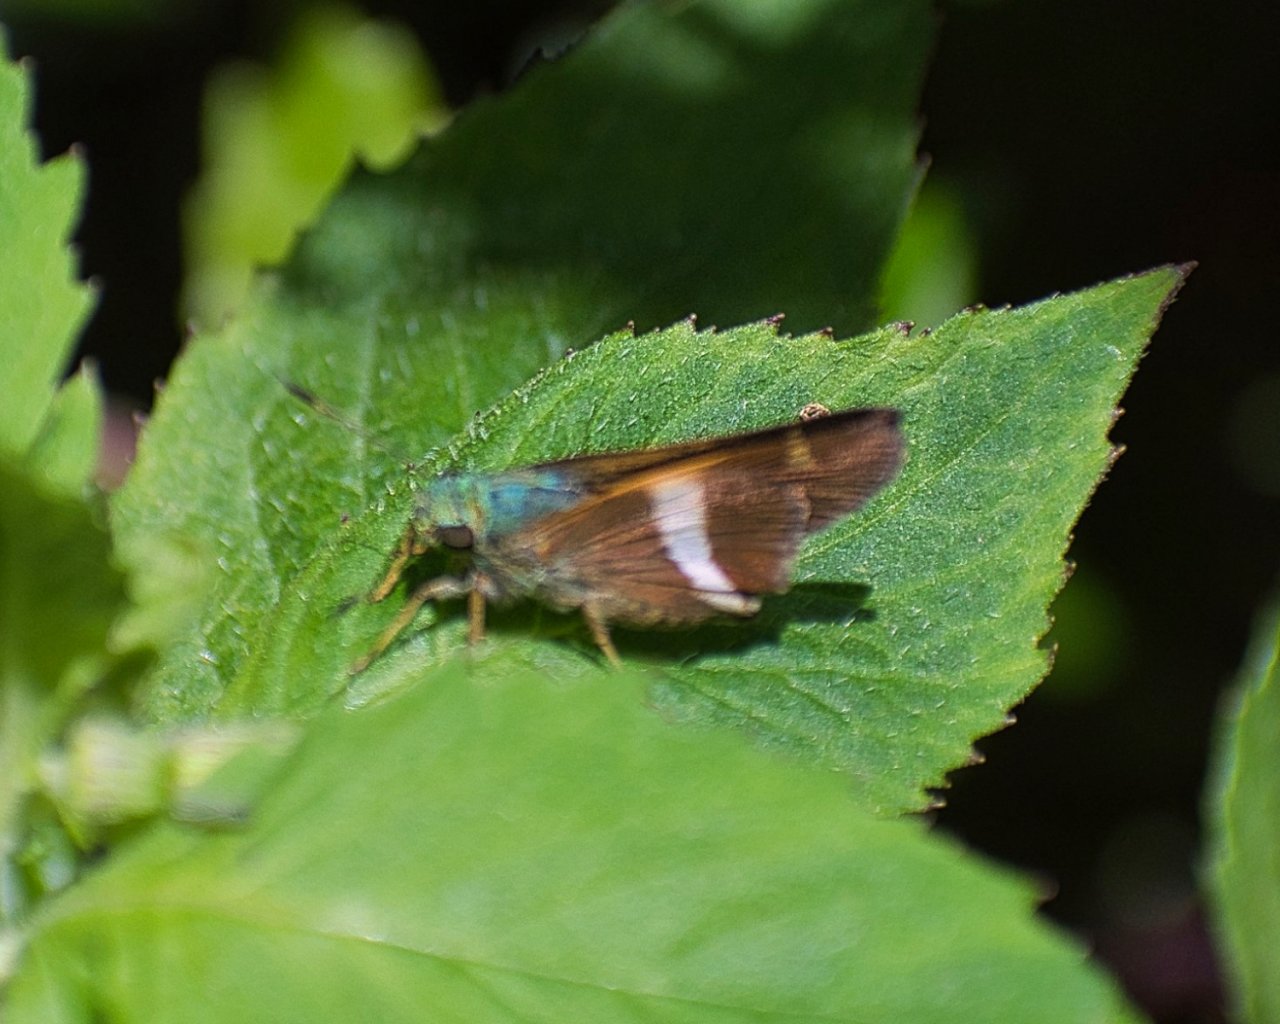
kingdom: Animalia
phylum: Arthropoda
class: Insecta
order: Lepidoptera
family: Hesperiidae
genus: Oxynthes
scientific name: Oxynthes corusca
